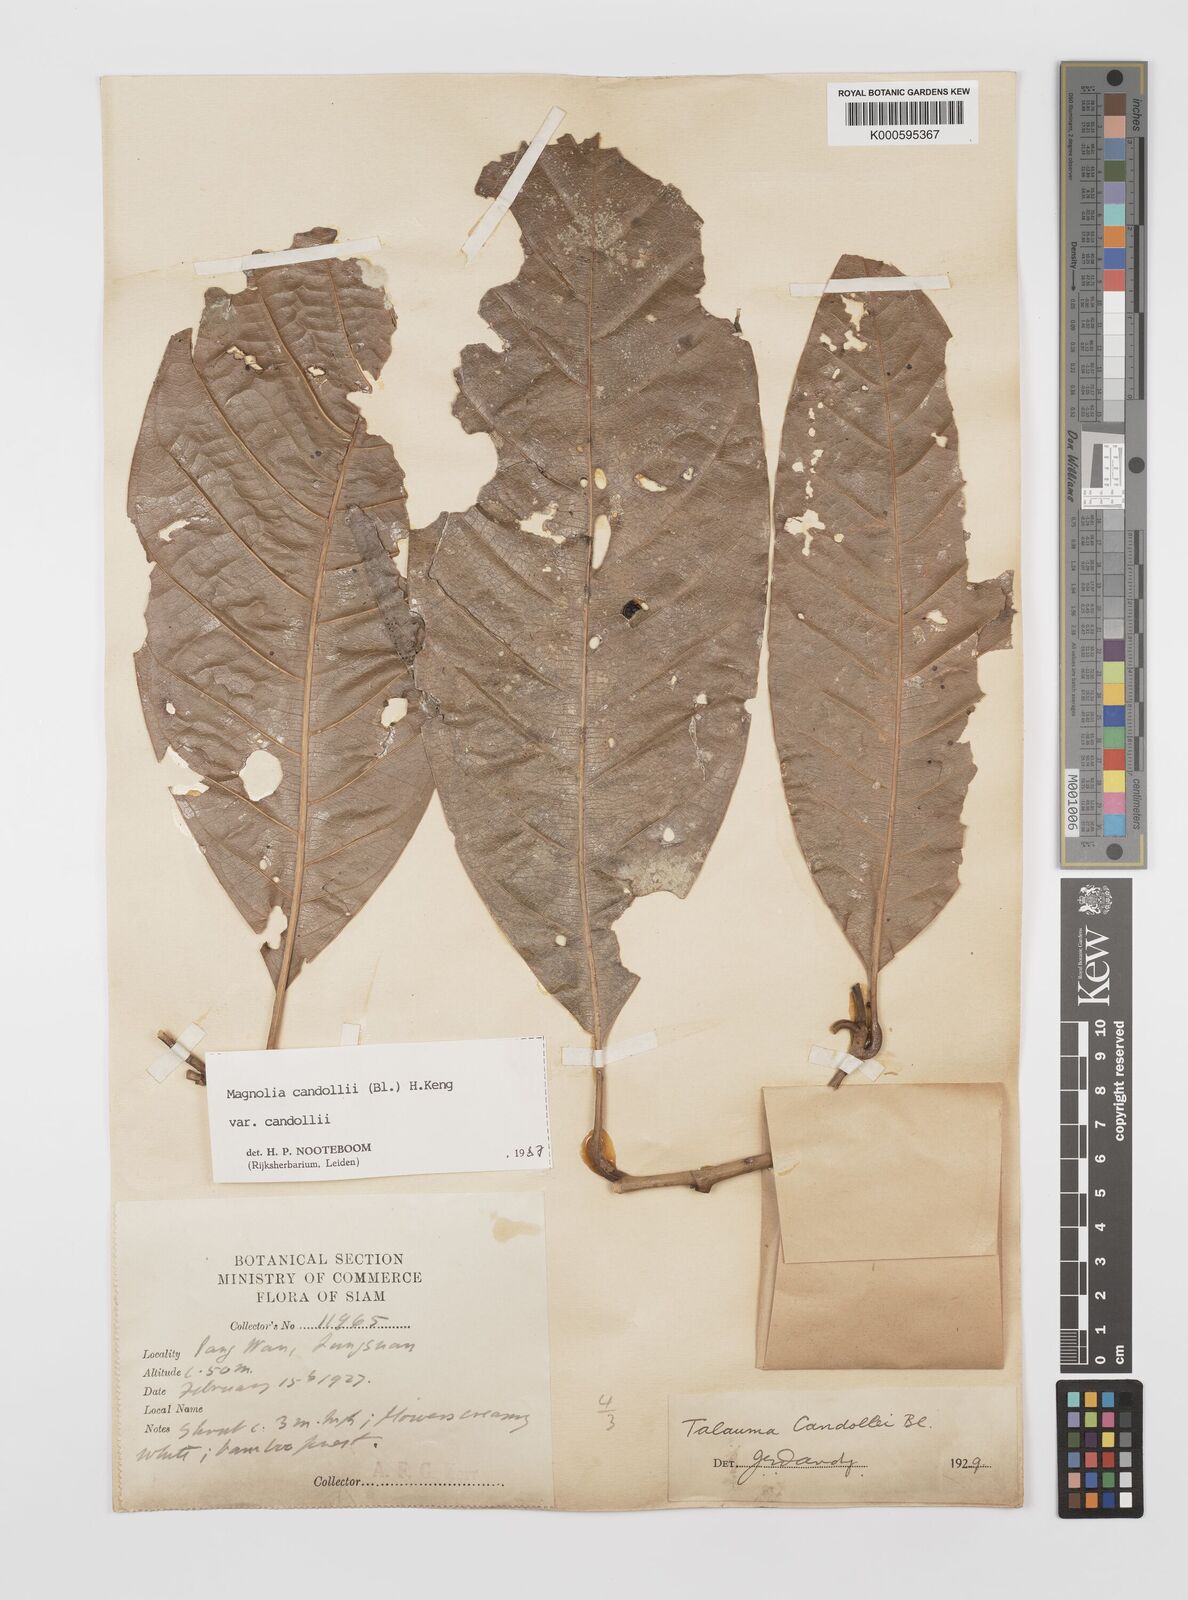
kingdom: Plantae
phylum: Tracheophyta
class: Magnoliopsida
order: Magnoliales
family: Magnoliaceae
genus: Magnolia
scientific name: Magnolia liliifera
